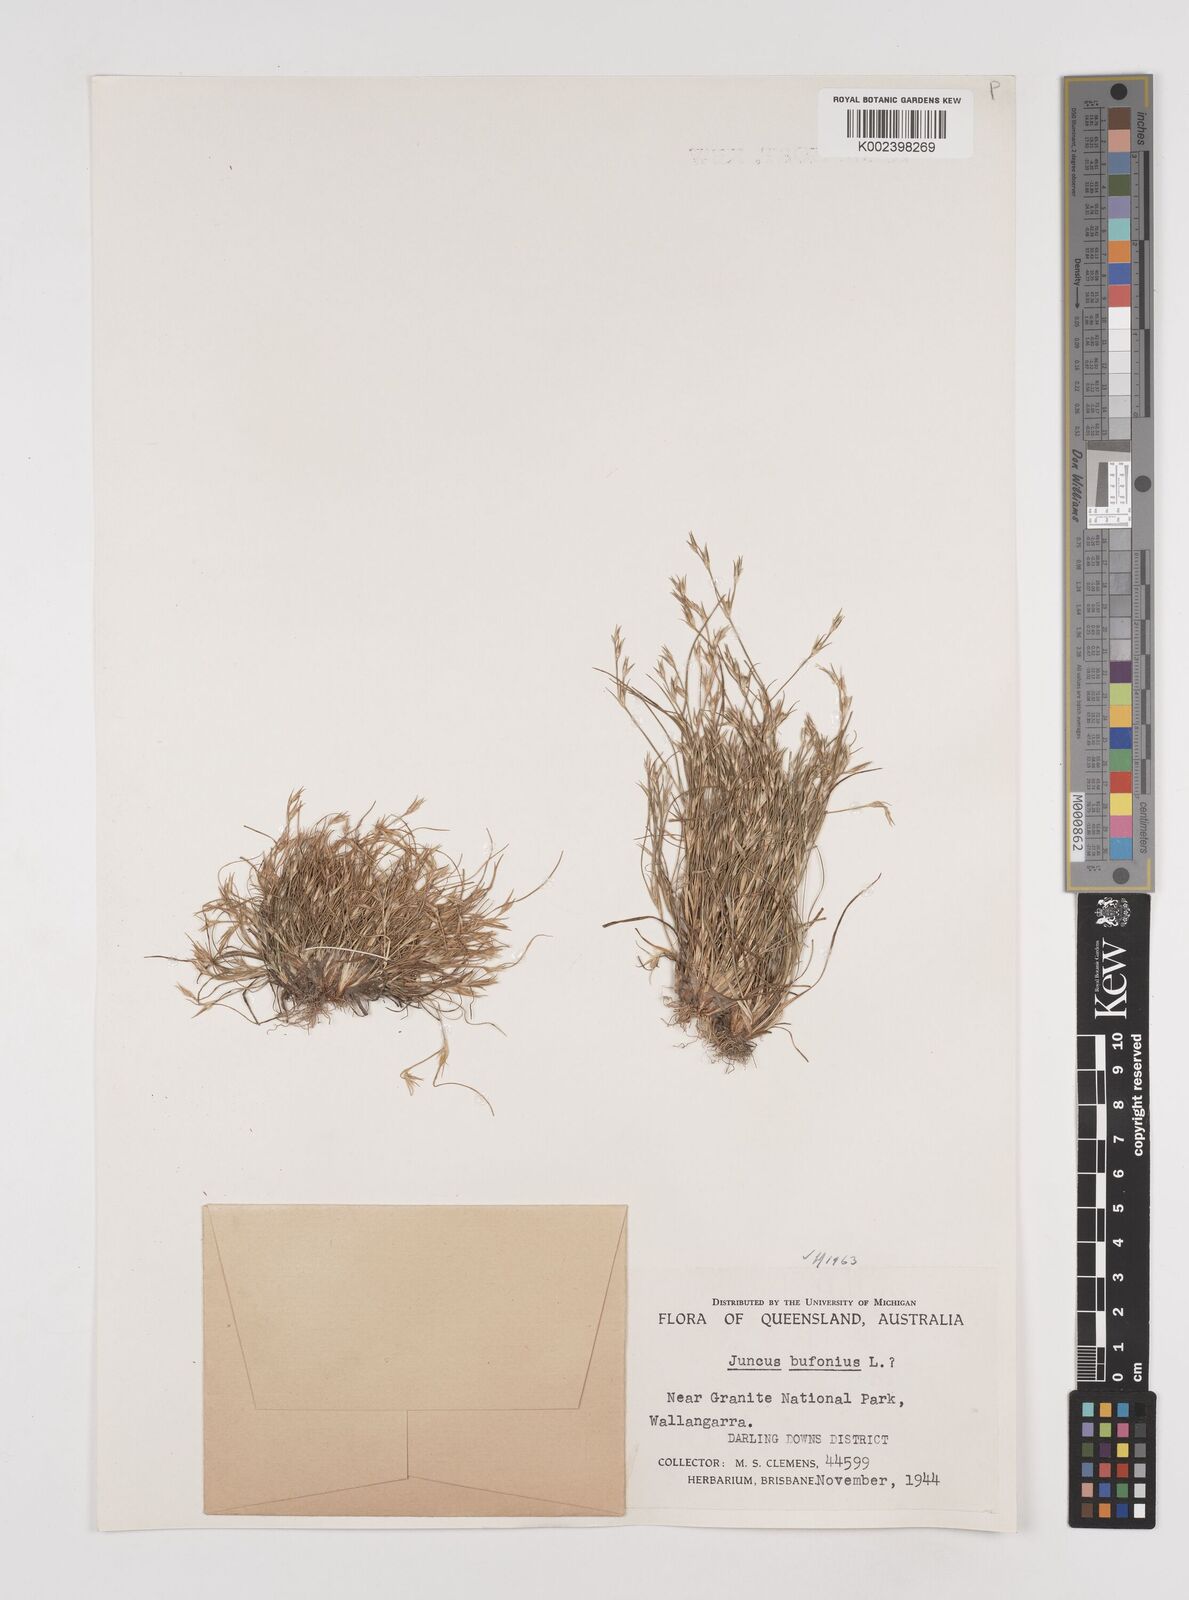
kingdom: Plantae
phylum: Tracheophyta
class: Liliopsida
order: Poales
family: Juncaceae
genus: Juncus
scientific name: Juncus bufonius
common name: Toad rush
